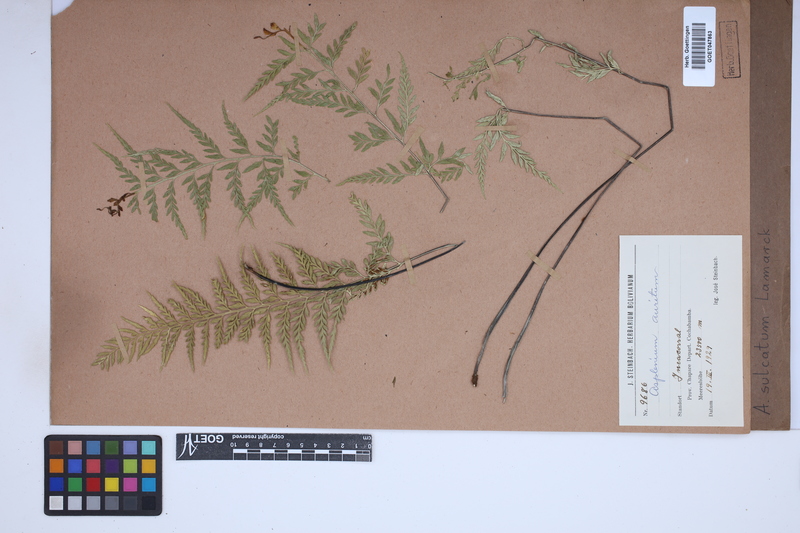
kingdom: Plantae
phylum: Tracheophyta
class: Polypodiopsida
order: Polypodiales
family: Aspleniaceae
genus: Asplenium
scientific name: Asplenium sulcatum
